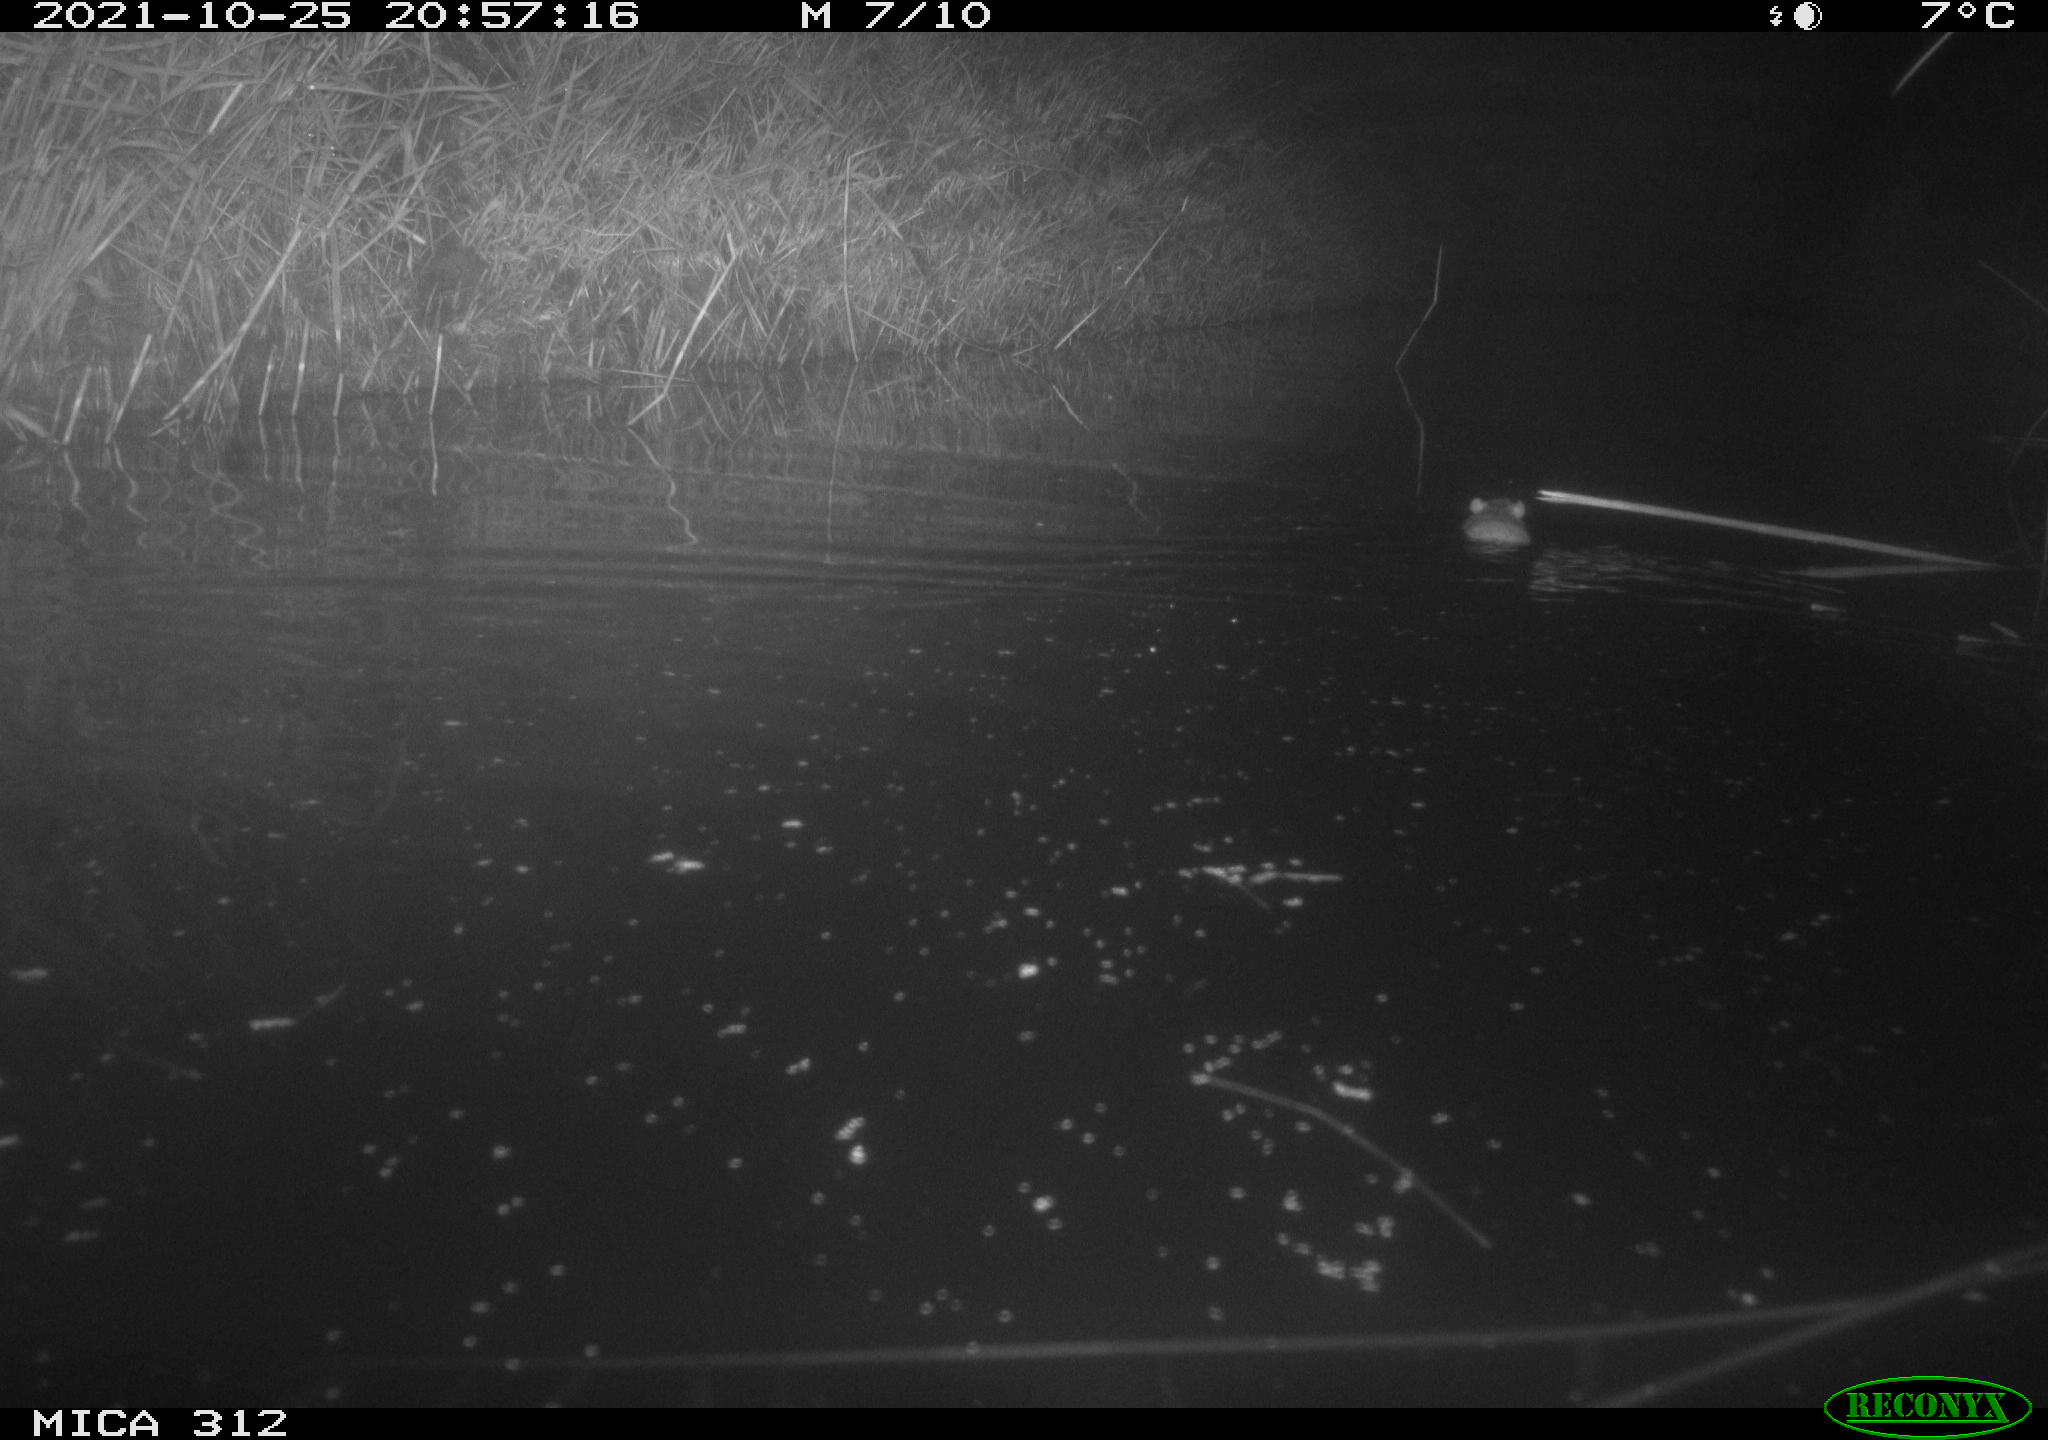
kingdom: Animalia
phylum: Chordata
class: Mammalia
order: Rodentia
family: Muridae
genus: Rattus
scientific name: Rattus norvegicus
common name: Brown rat
